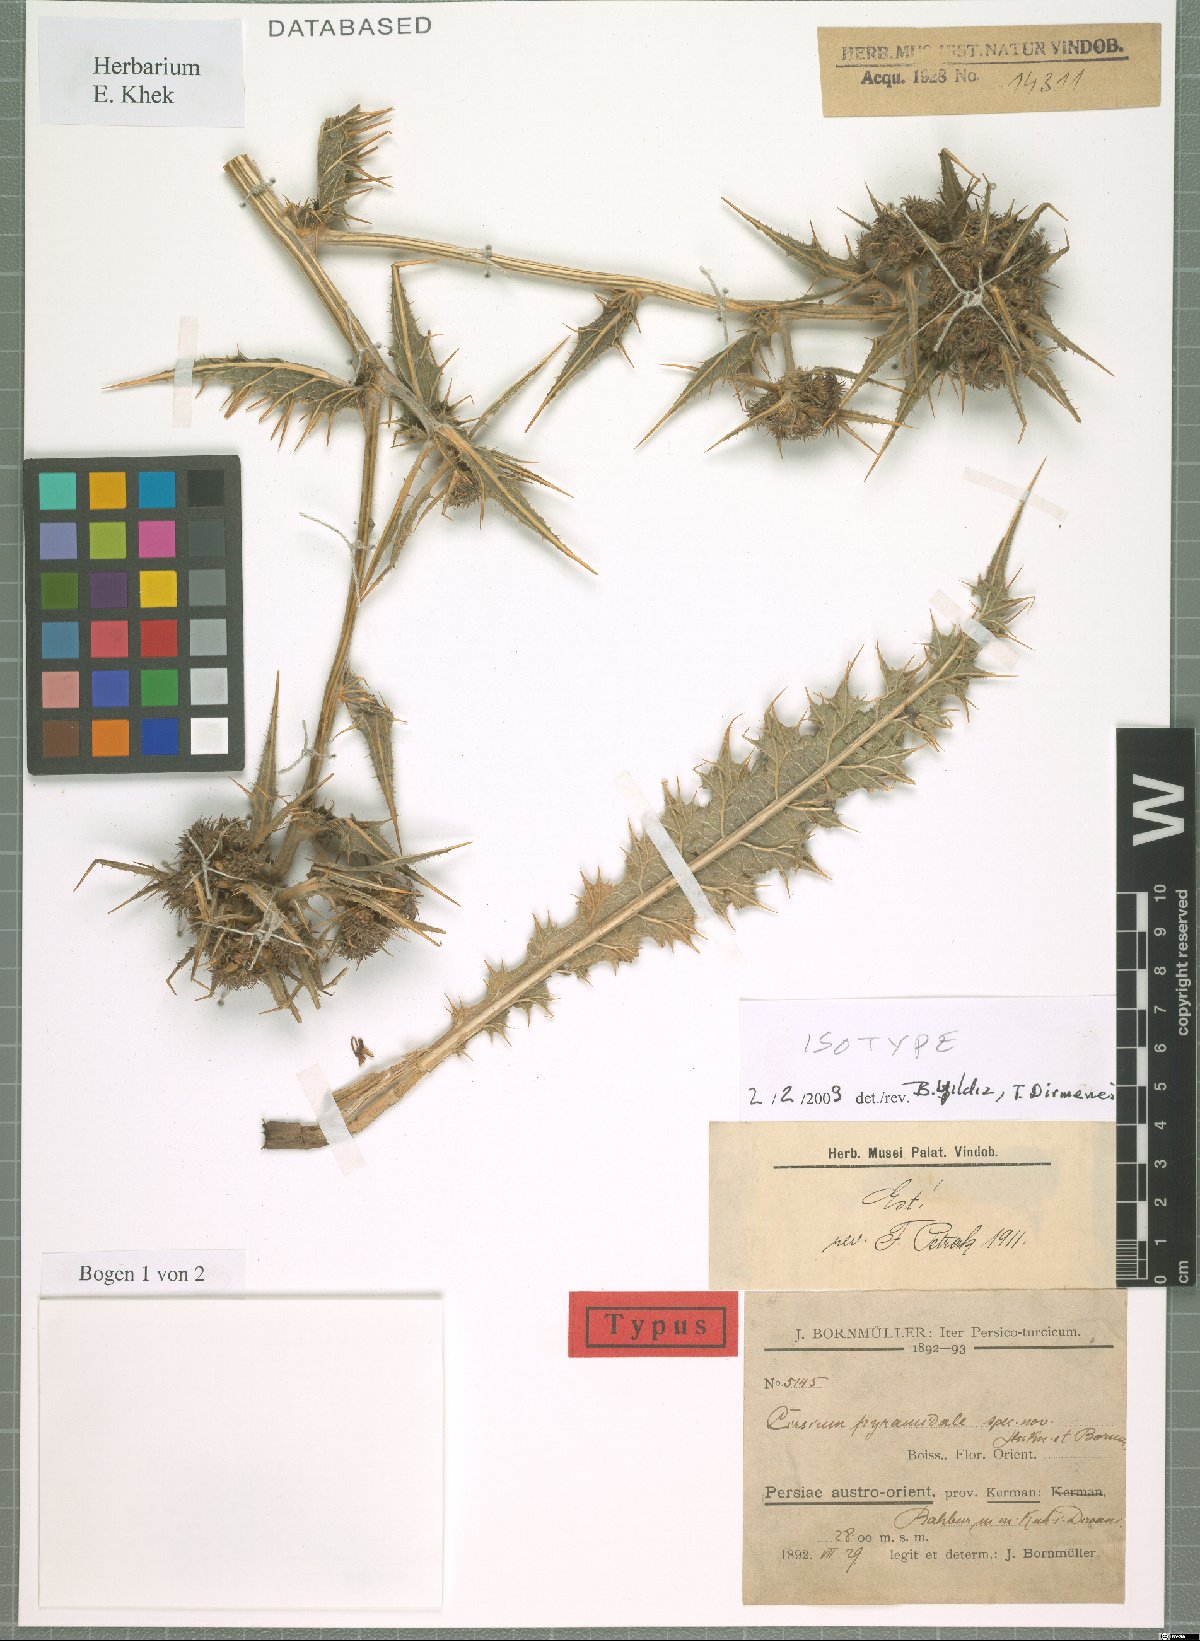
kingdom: Plantae
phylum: Tracheophyta
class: Magnoliopsida
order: Asterales
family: Asteraceae
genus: Lophiolepis
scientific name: Lophiolepis pyramidalis
